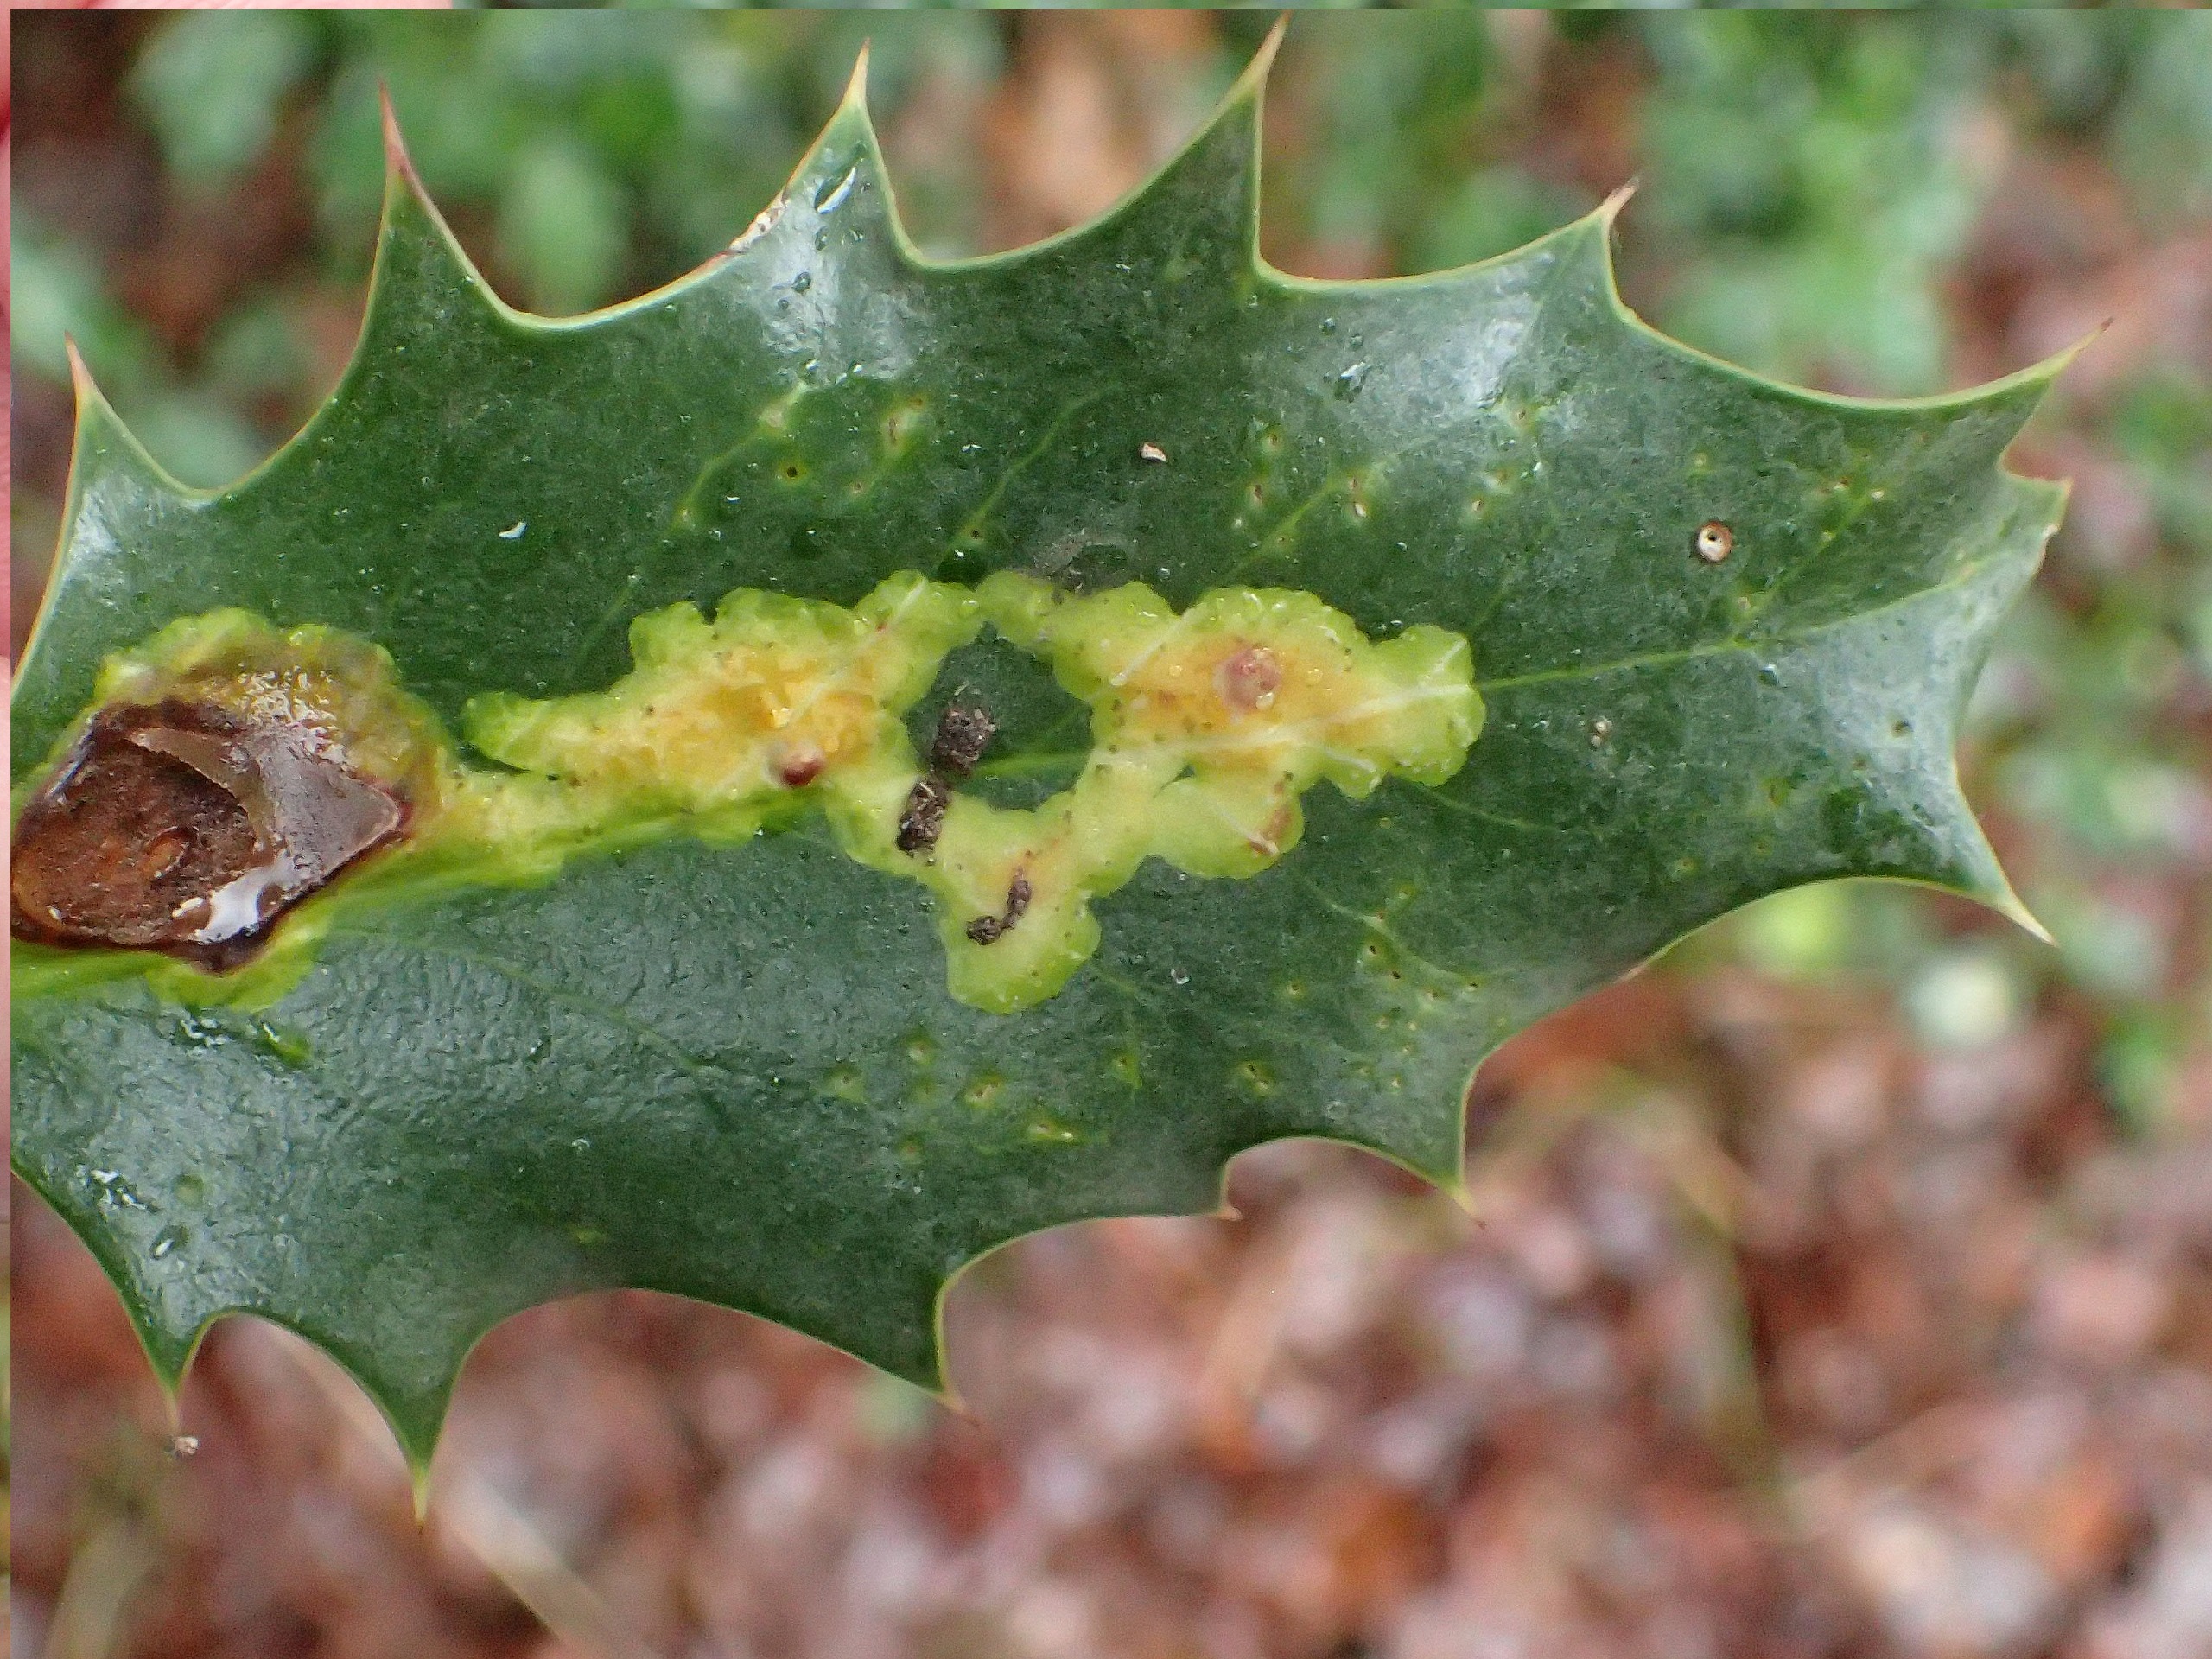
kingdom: Plantae
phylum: Tracheophyta
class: Magnoliopsida
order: Aquifoliales
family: Aquifoliaceae
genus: Ilex
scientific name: Ilex aquifolium
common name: Kristtorn
